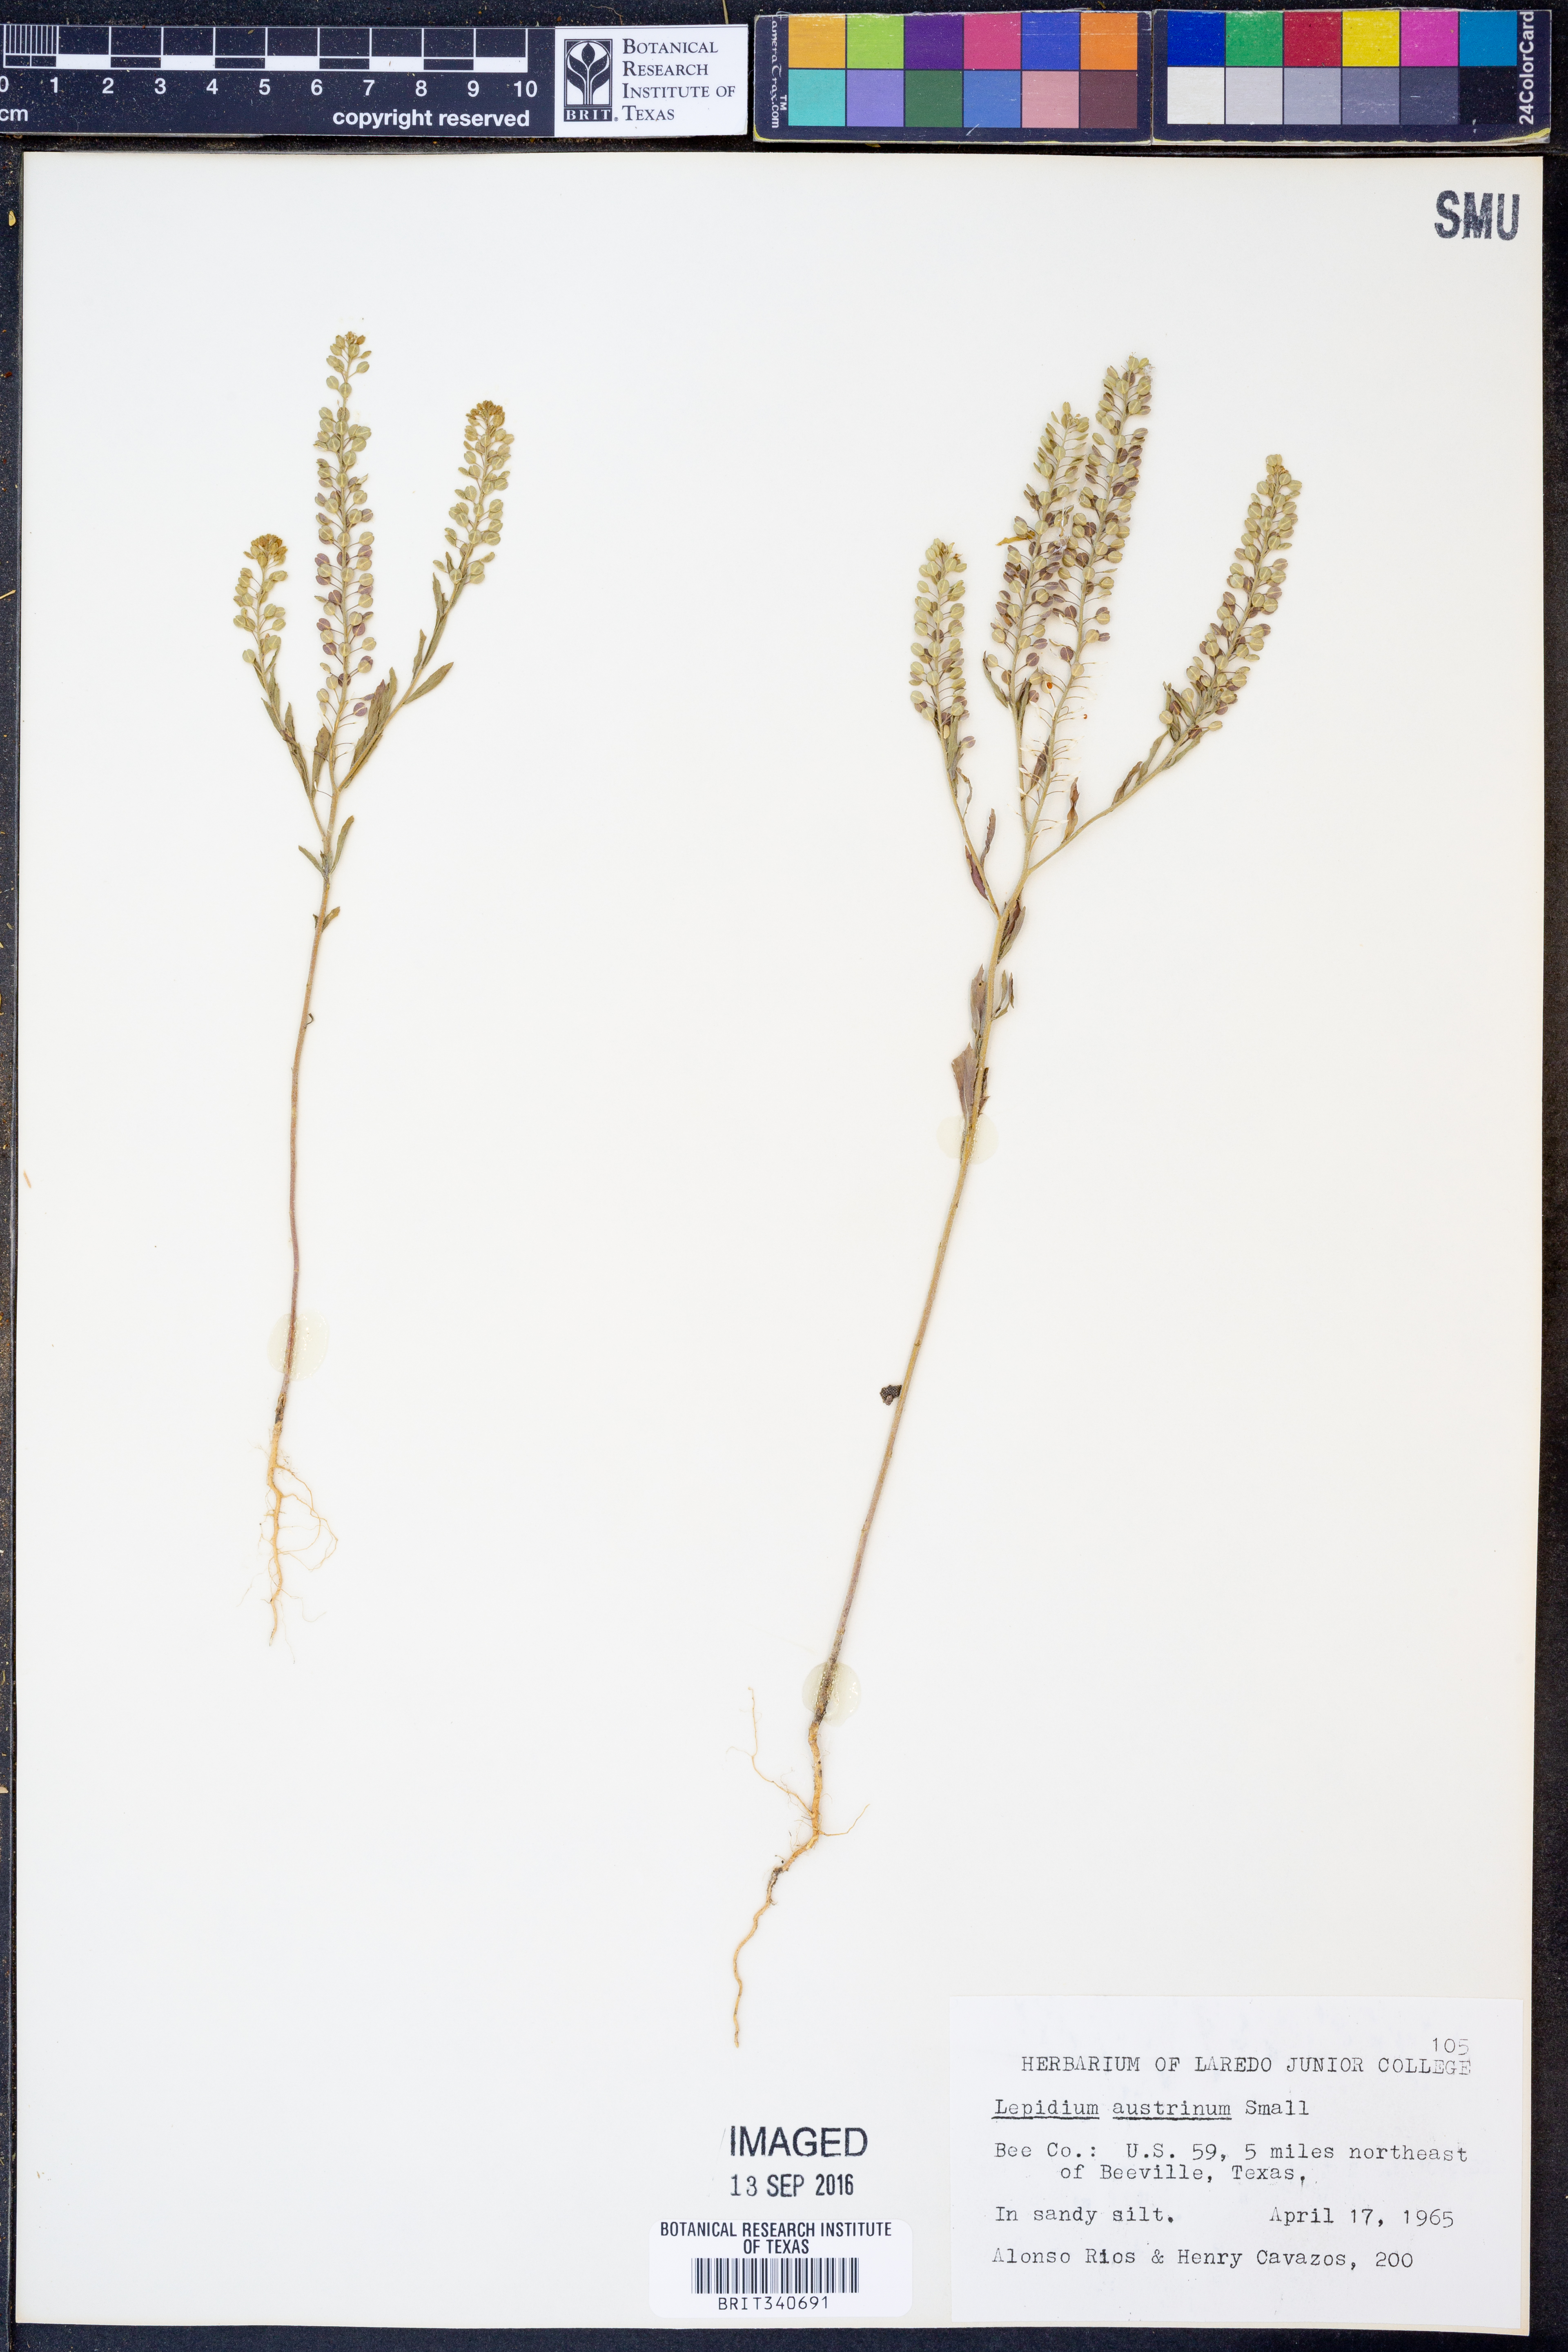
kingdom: Plantae
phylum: Tracheophyta
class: Magnoliopsida
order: Brassicales
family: Brassicaceae
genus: Lepidium
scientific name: Lepidium austrinum
